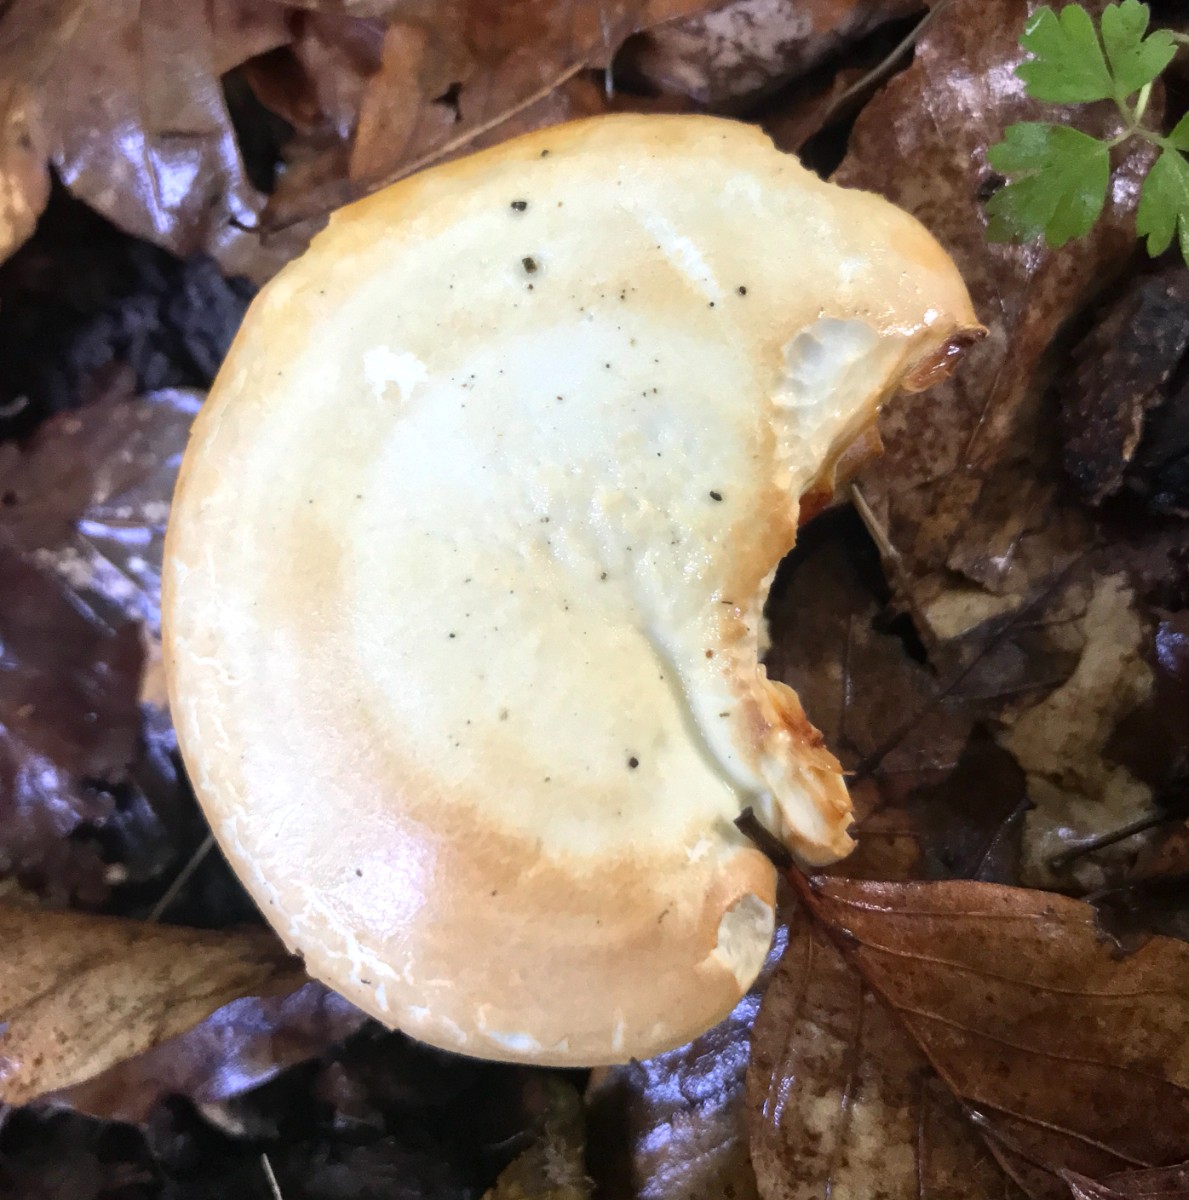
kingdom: Fungi
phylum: Basidiomycota
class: Agaricomycetes
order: Agaricales
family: Hygrophoraceae
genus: Hygrophorus
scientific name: Hygrophorus
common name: sneglehat
